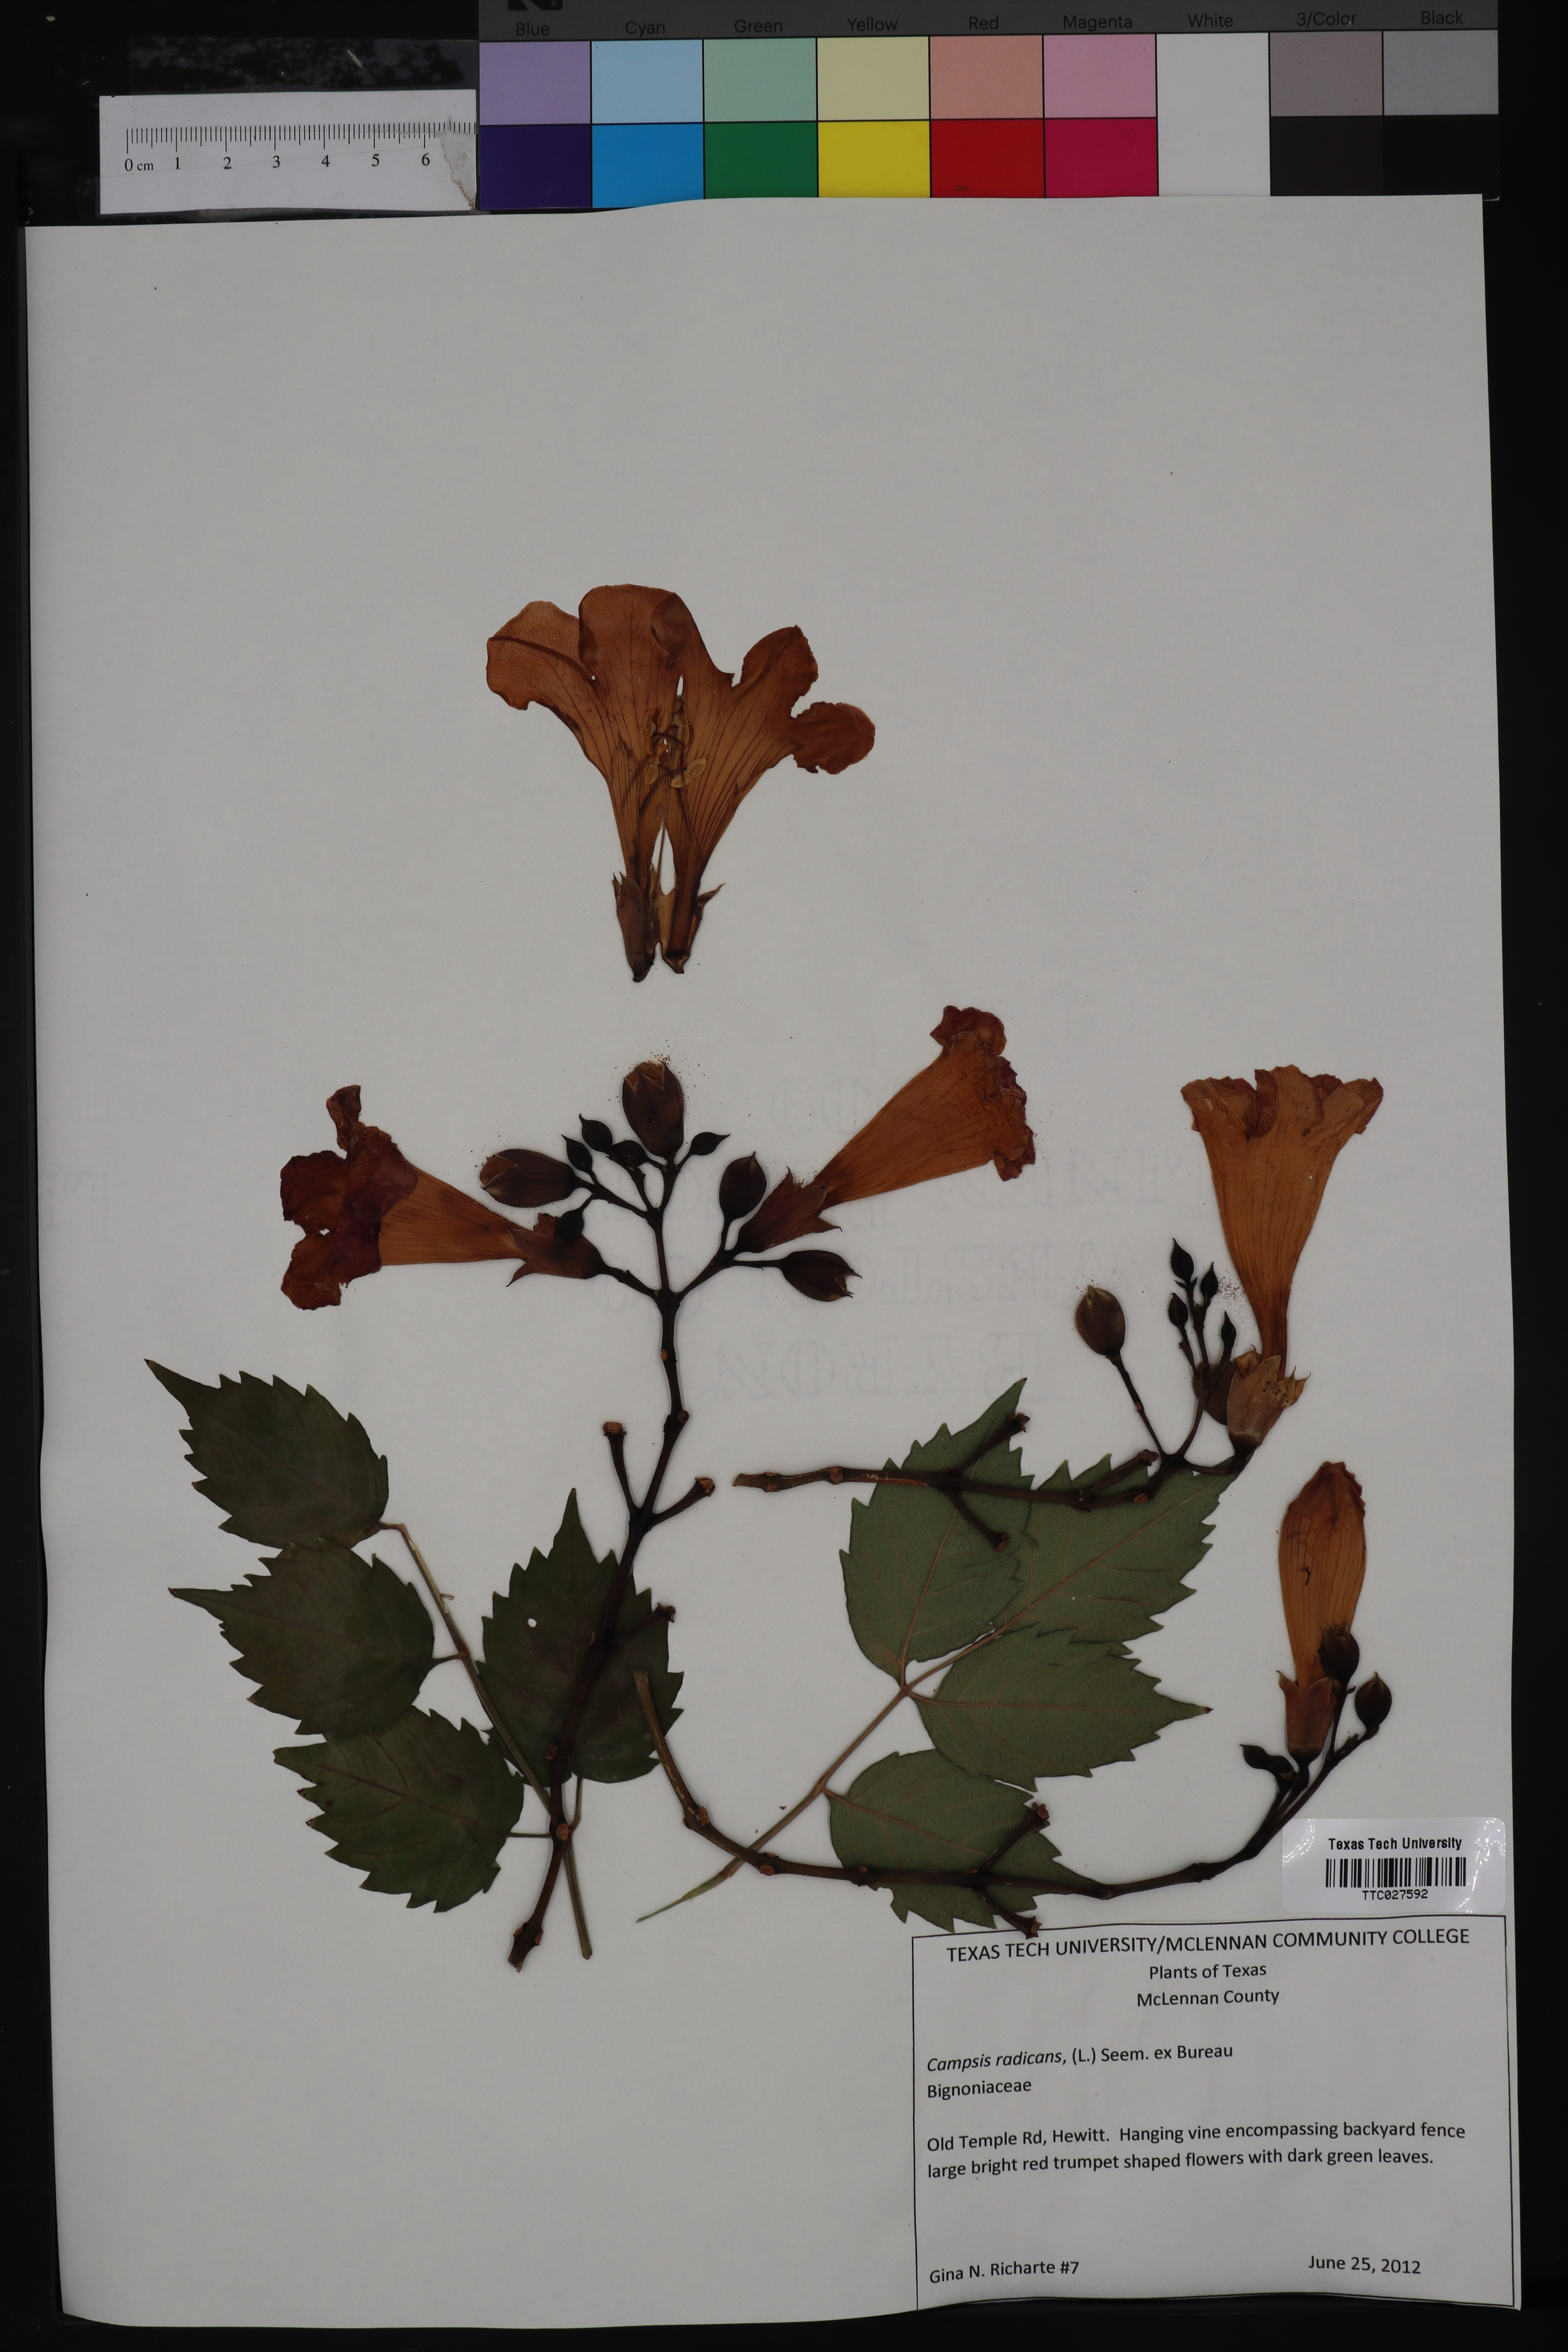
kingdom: Plantae
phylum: Tracheophyta
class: Magnoliopsida
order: Lamiales
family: Bignoniaceae
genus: Campsis
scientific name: Campsis radicans
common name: Trumpet-creeper
